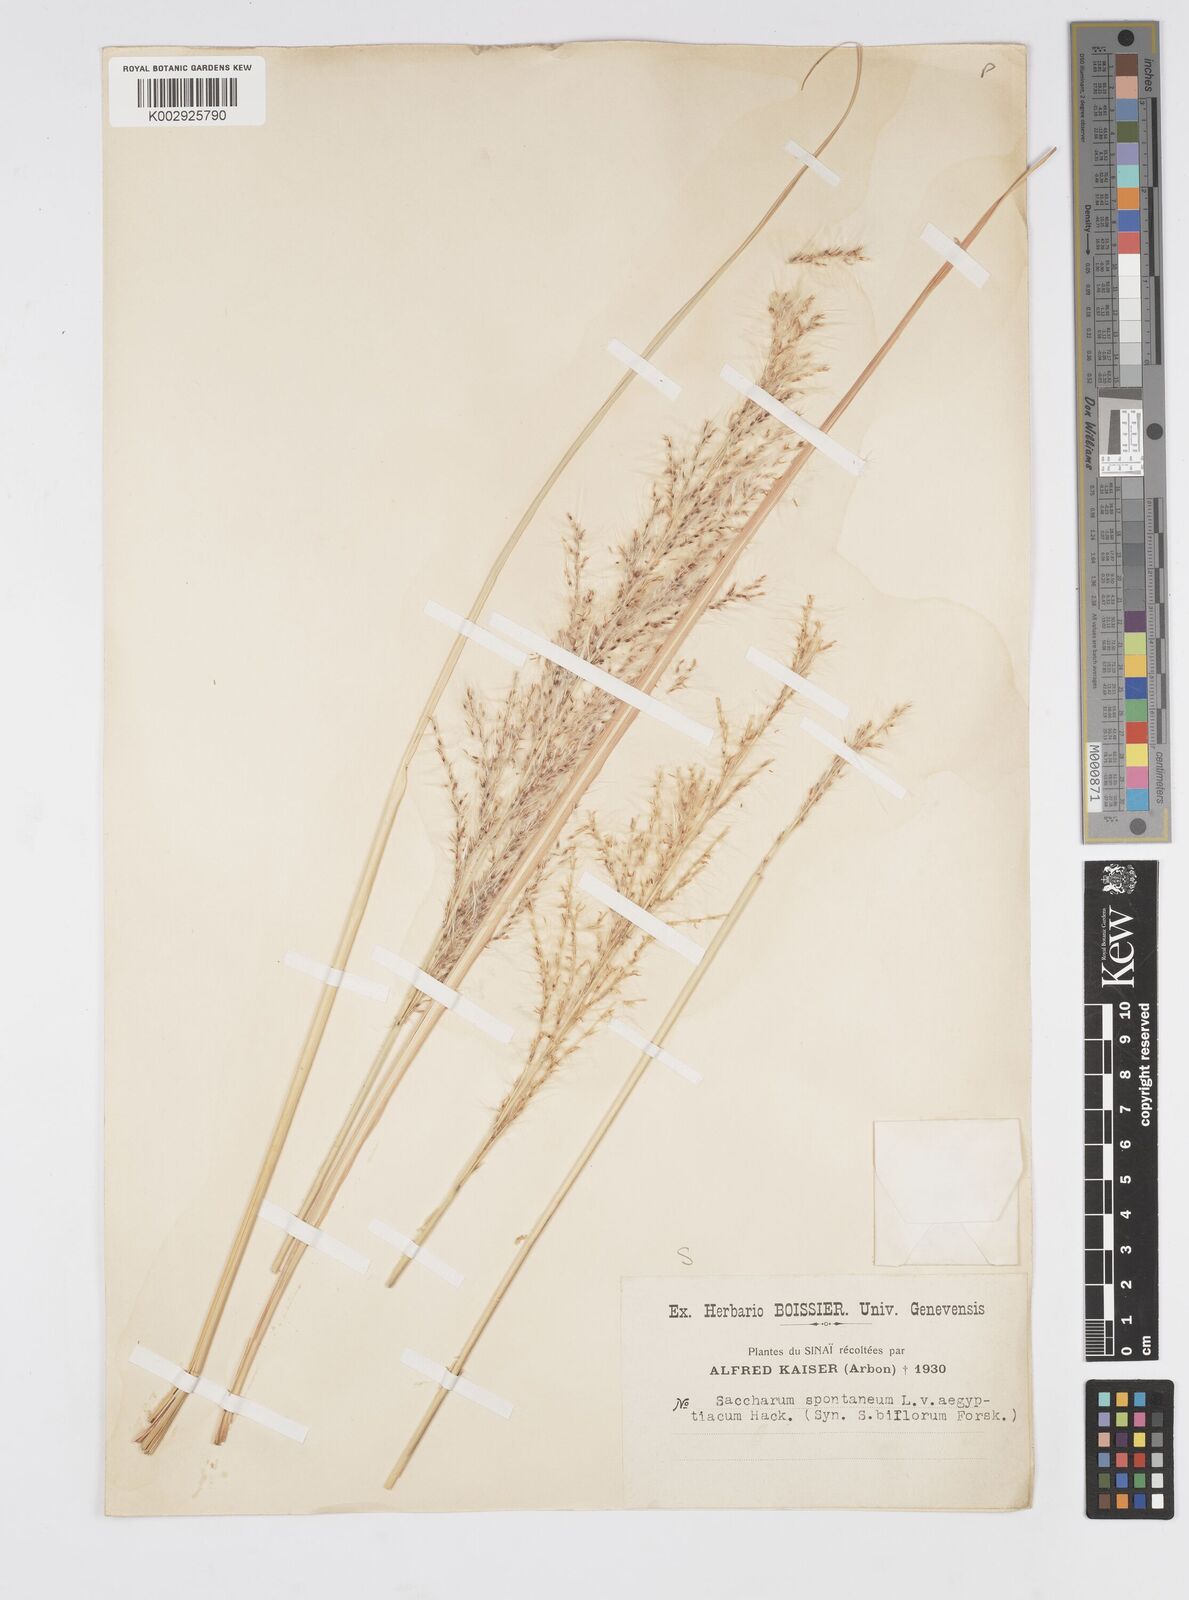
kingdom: Plantae
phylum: Tracheophyta
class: Liliopsida
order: Poales
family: Poaceae
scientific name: Poaceae
